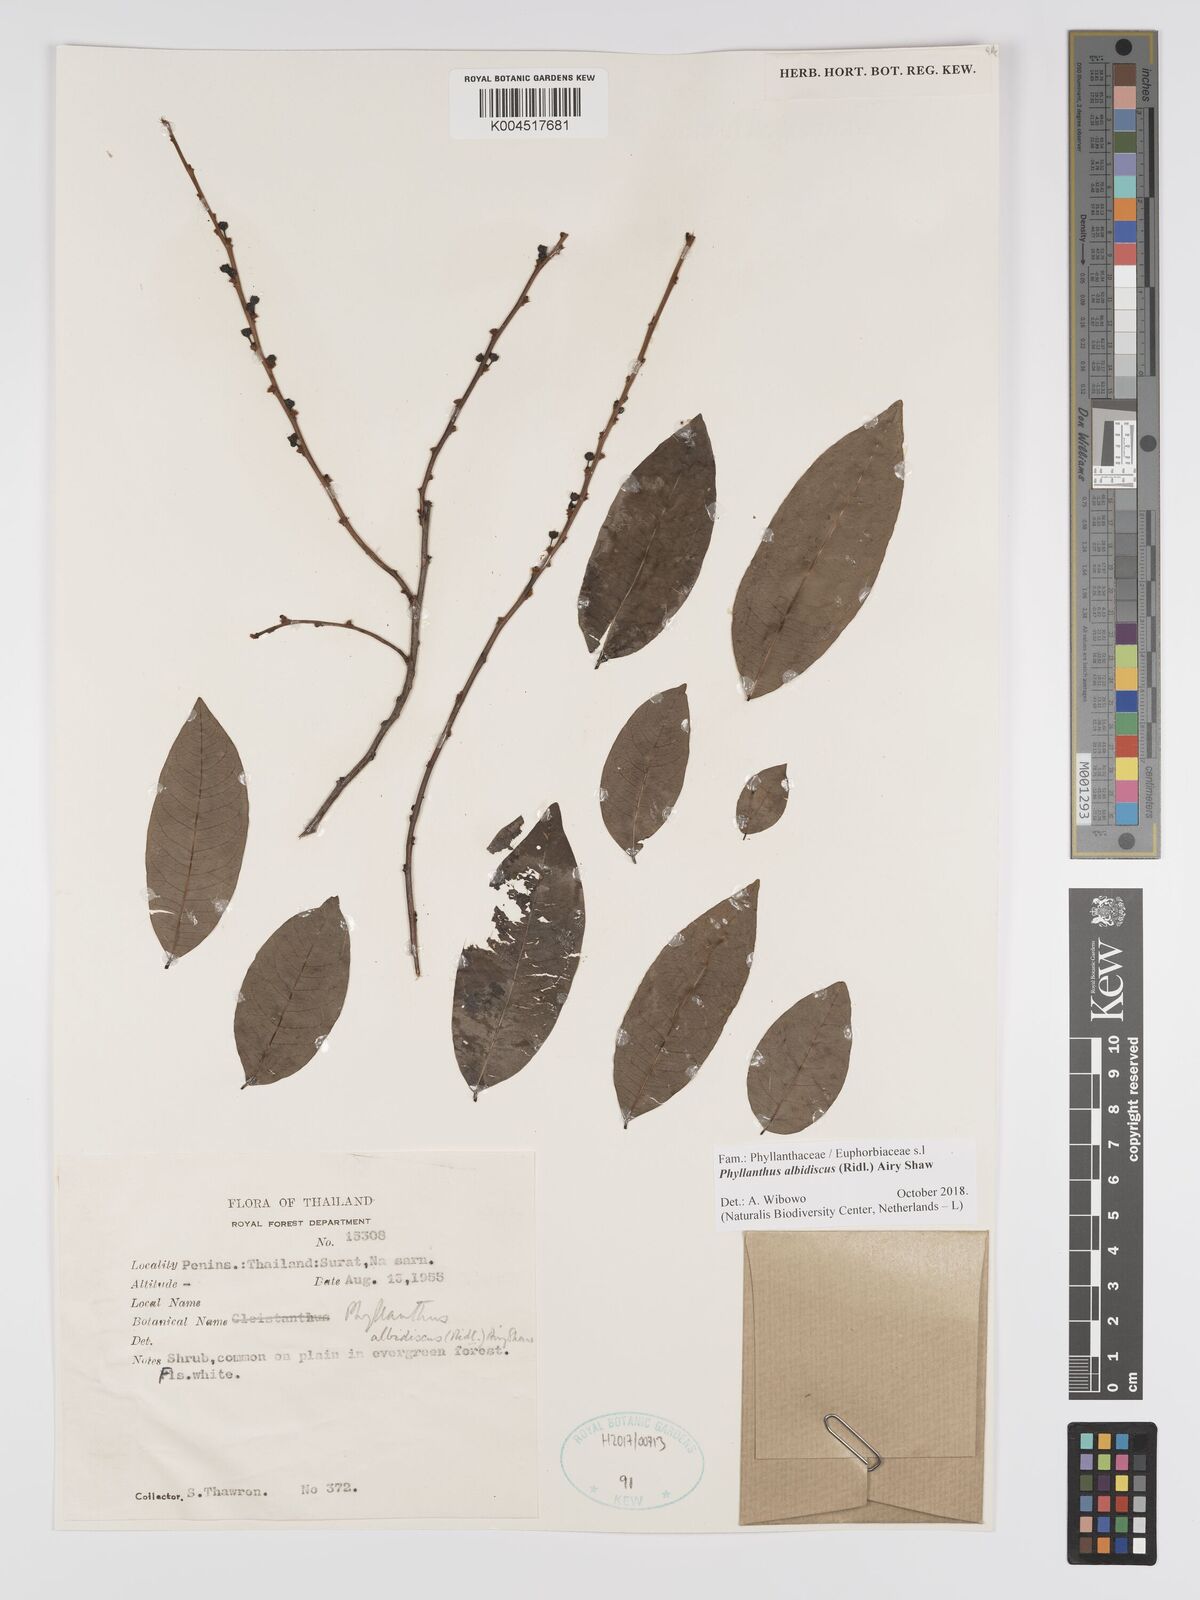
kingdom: Plantae
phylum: Tracheophyta
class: Magnoliopsida
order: Malpighiales
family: Phyllanthaceae
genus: Phyllanthus
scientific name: Phyllanthus albidiscus
